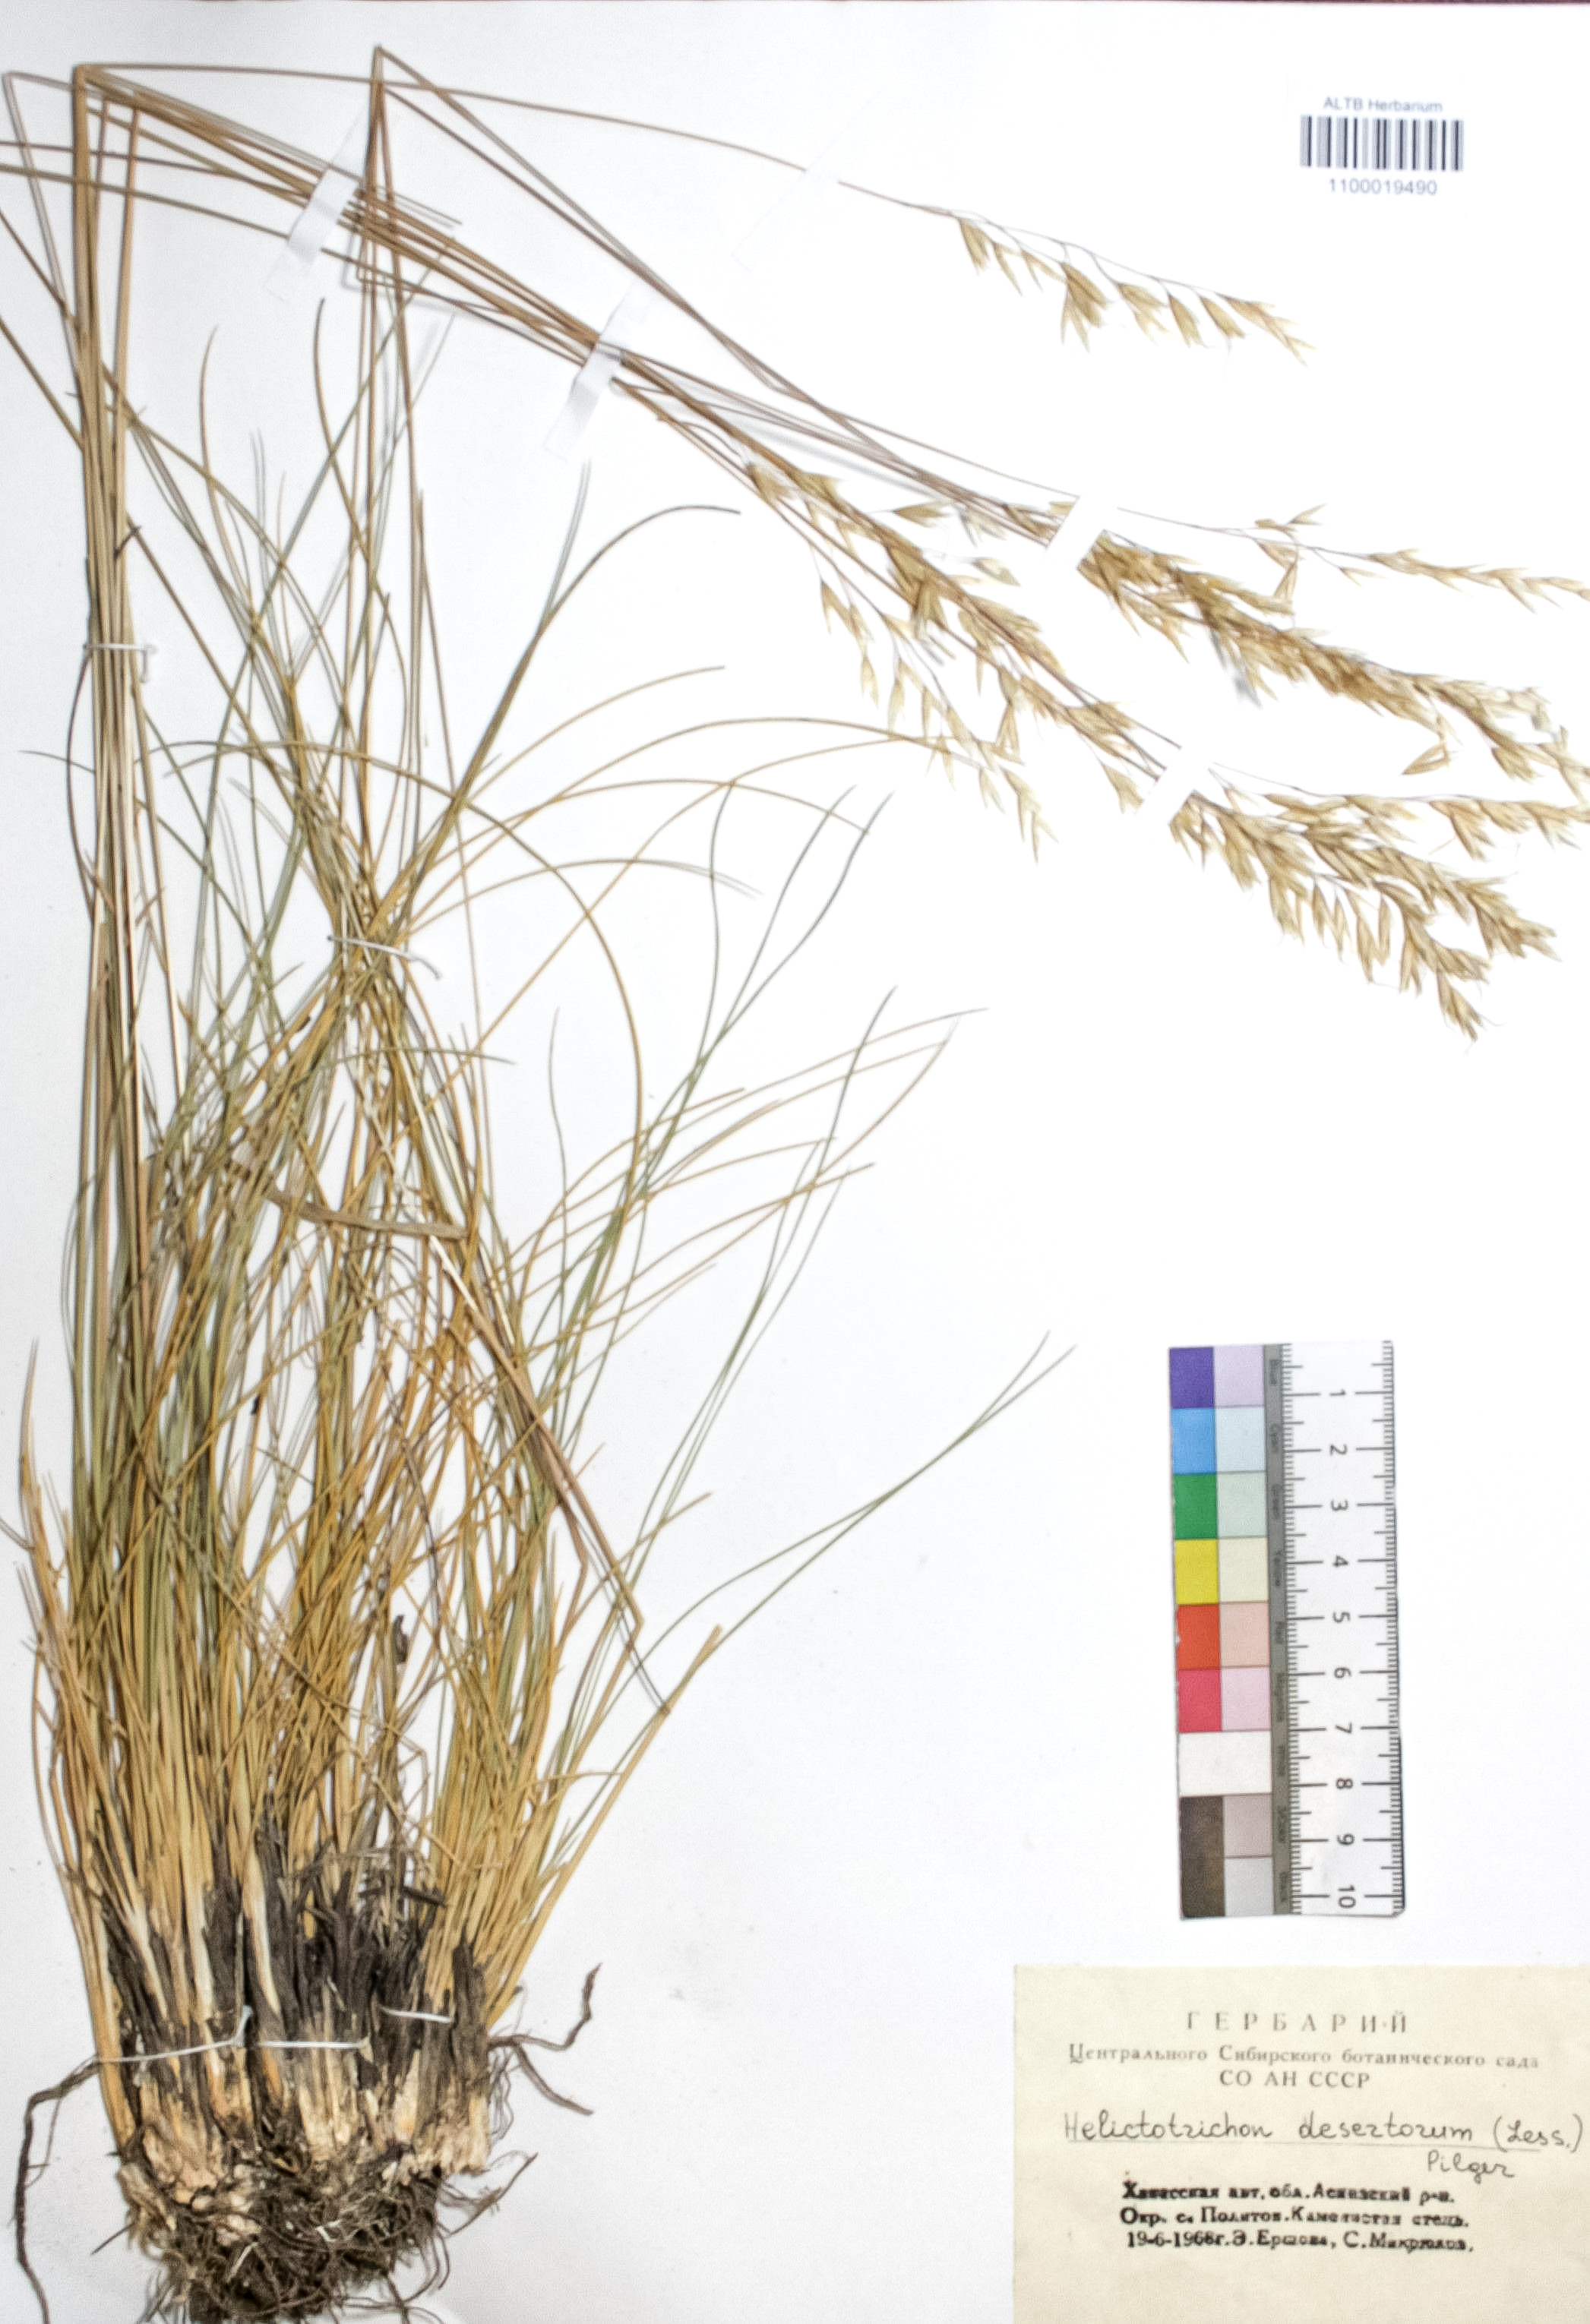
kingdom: Plantae
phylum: Tracheophyta
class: Liliopsida
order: Poales
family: Poaceae
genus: Helictotrichon
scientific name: Helictotrichon desertorum
